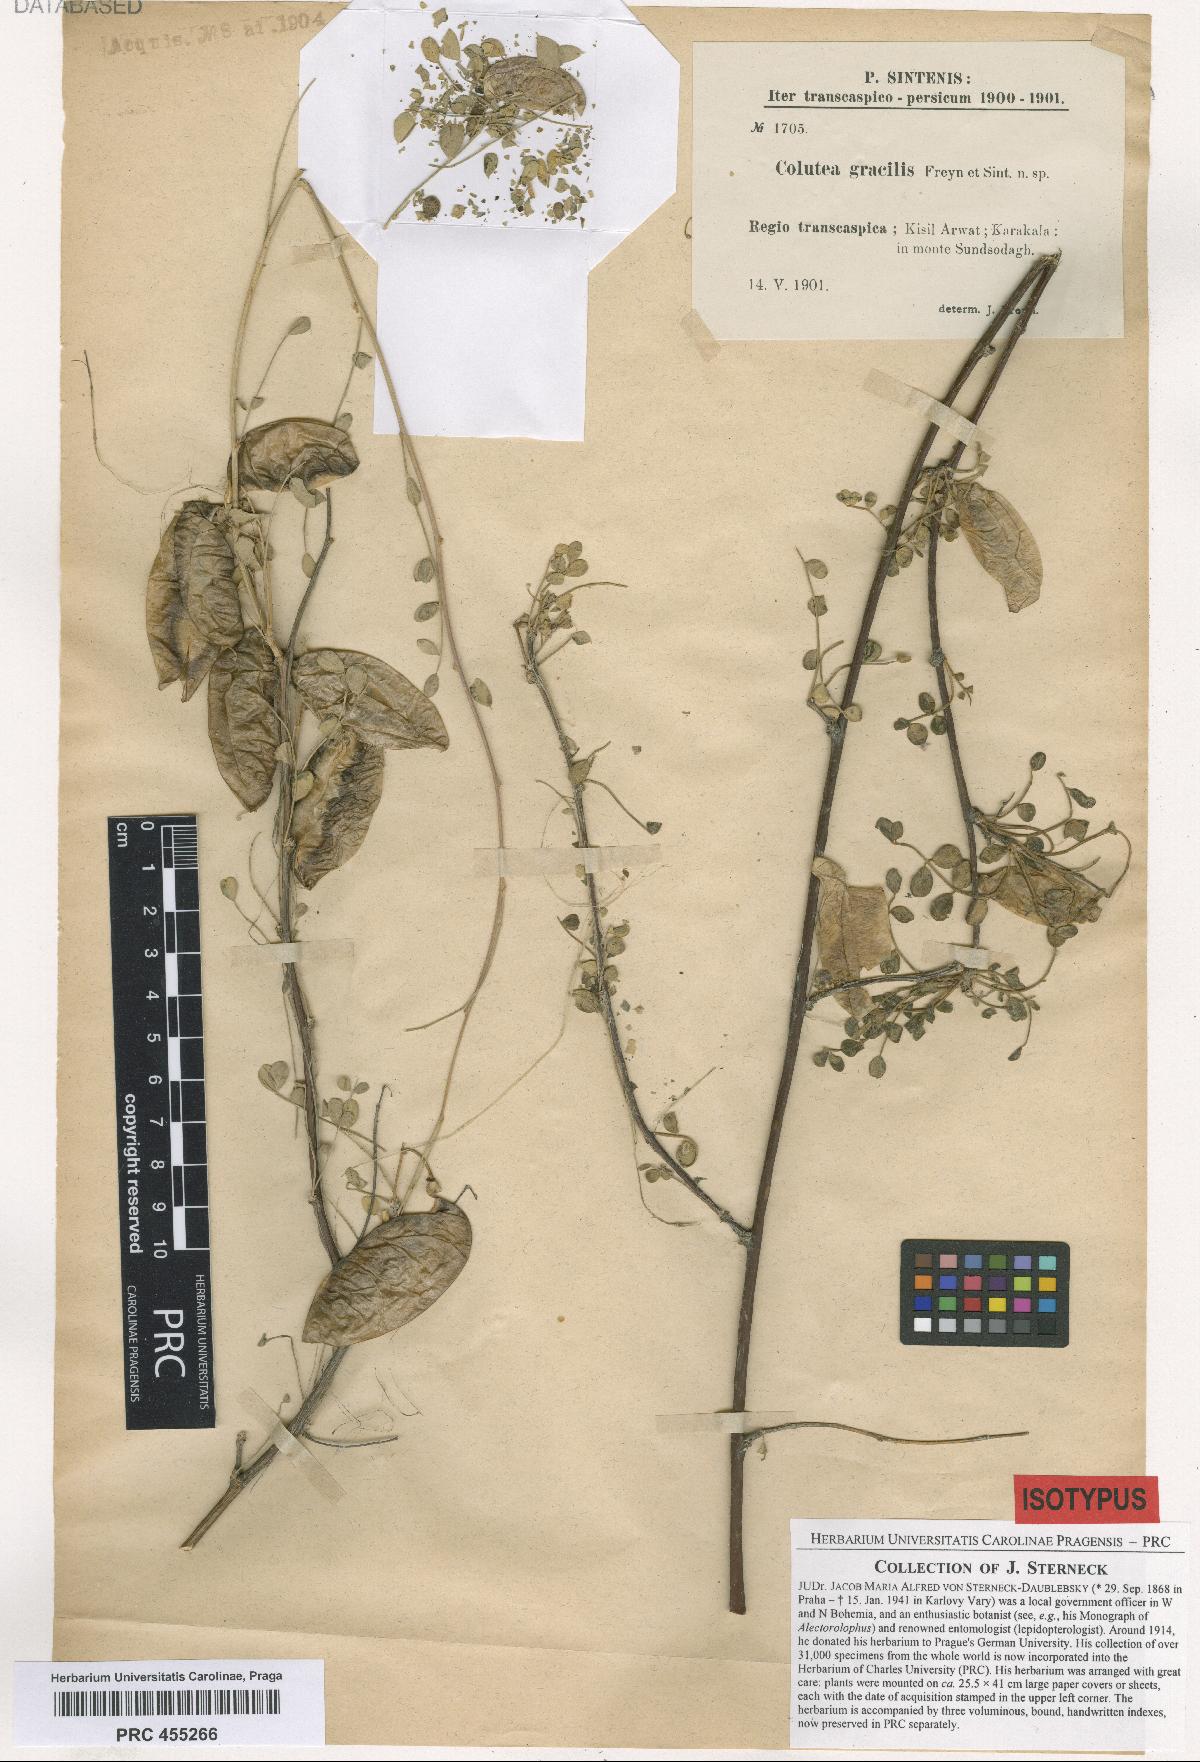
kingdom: Plantae
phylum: Tracheophyta
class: Magnoliopsida
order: Fabales
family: Fabaceae
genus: Colutea
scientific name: Colutea gracilis
